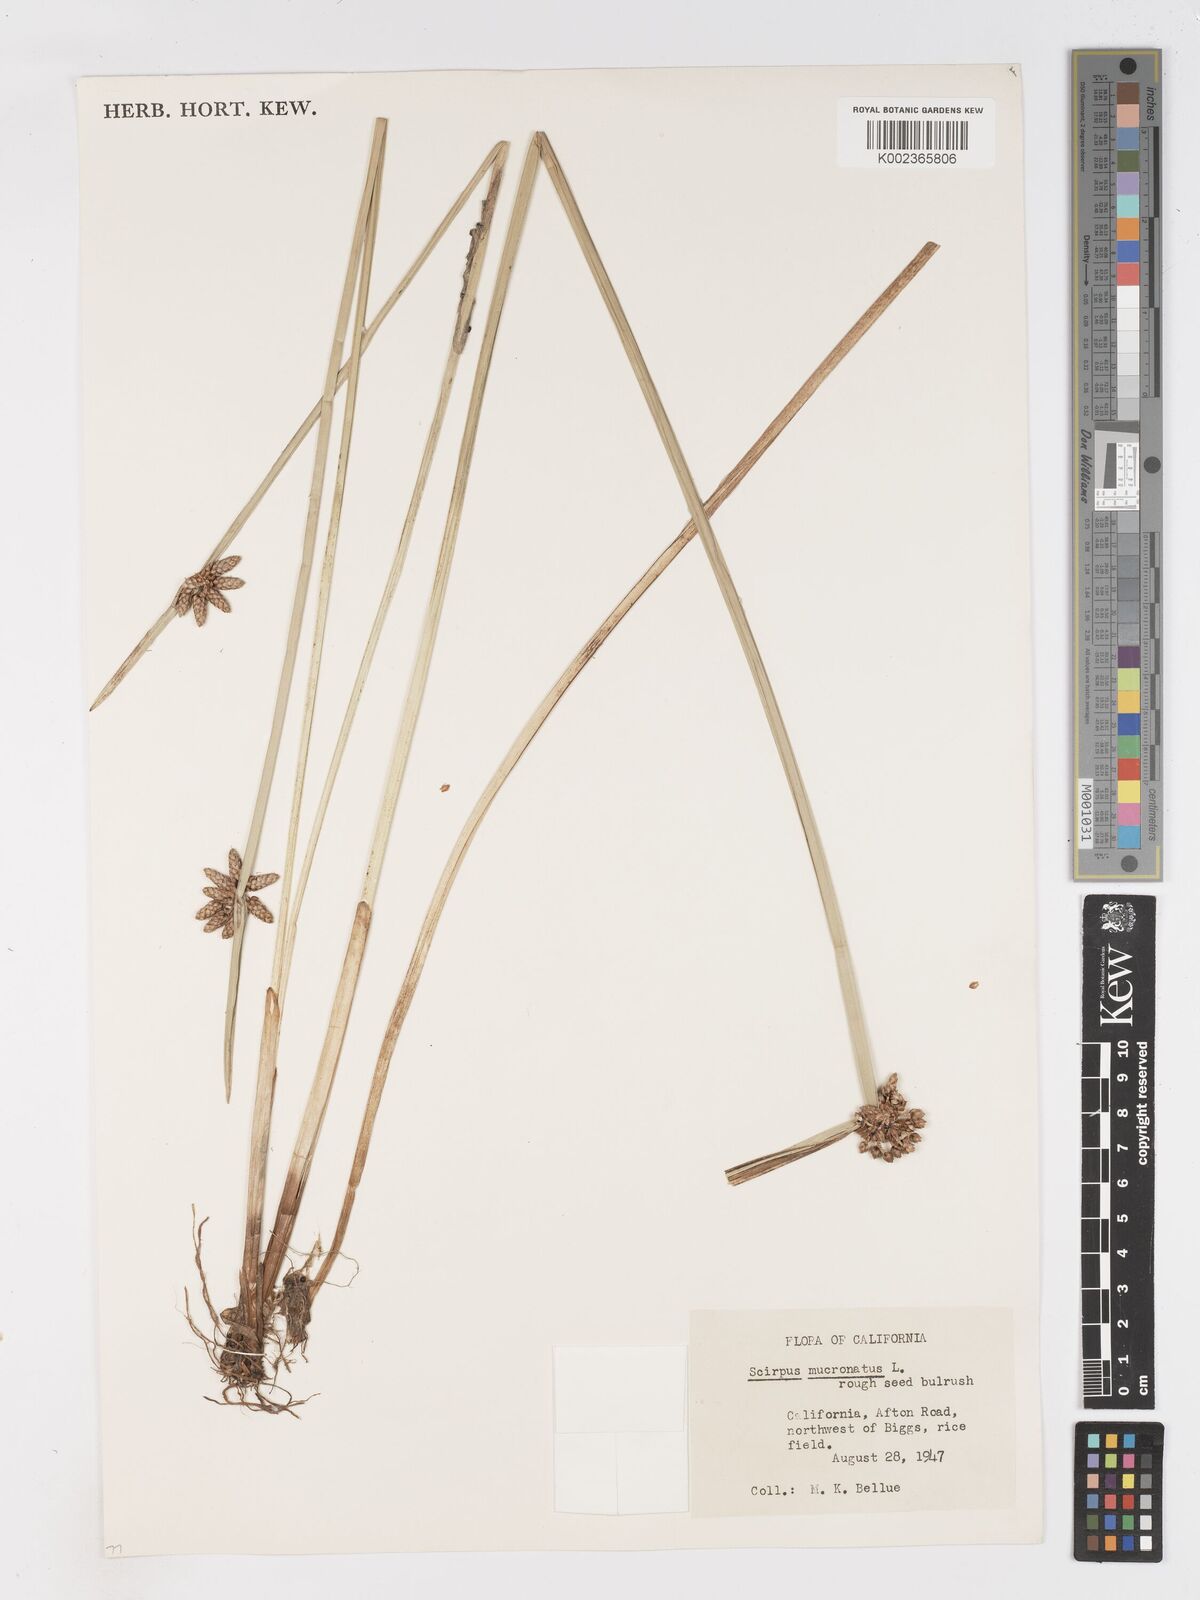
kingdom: Plantae
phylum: Tracheophyta
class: Liliopsida
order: Poales
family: Cyperaceae
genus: Schoenoplectiella
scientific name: Schoenoplectiella mucronata
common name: Bog bulrush
